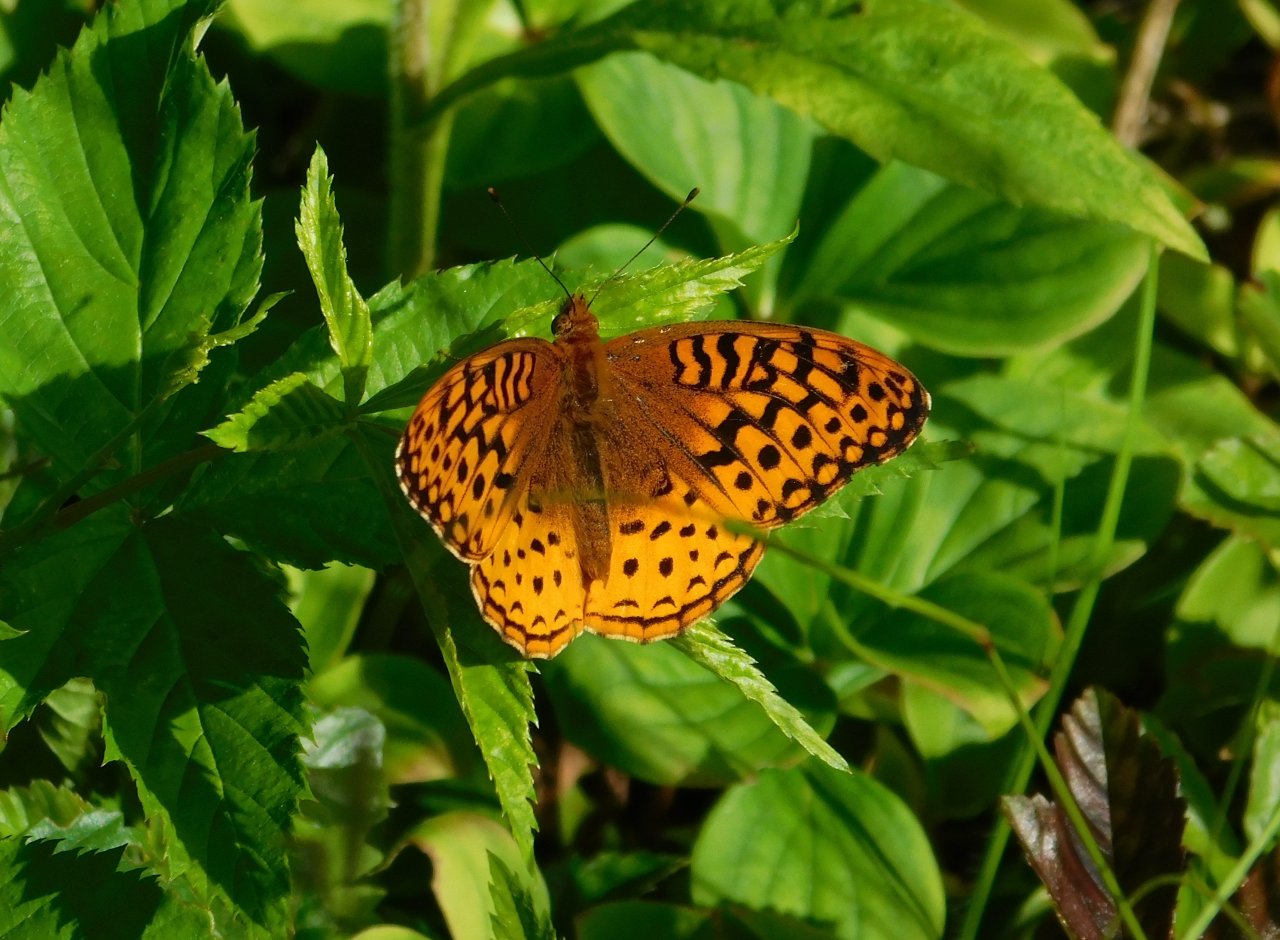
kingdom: Animalia
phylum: Arthropoda
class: Insecta
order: Lepidoptera
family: Nymphalidae
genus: Speyeria
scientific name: Speyeria cybele
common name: Great Spangled Fritillary
